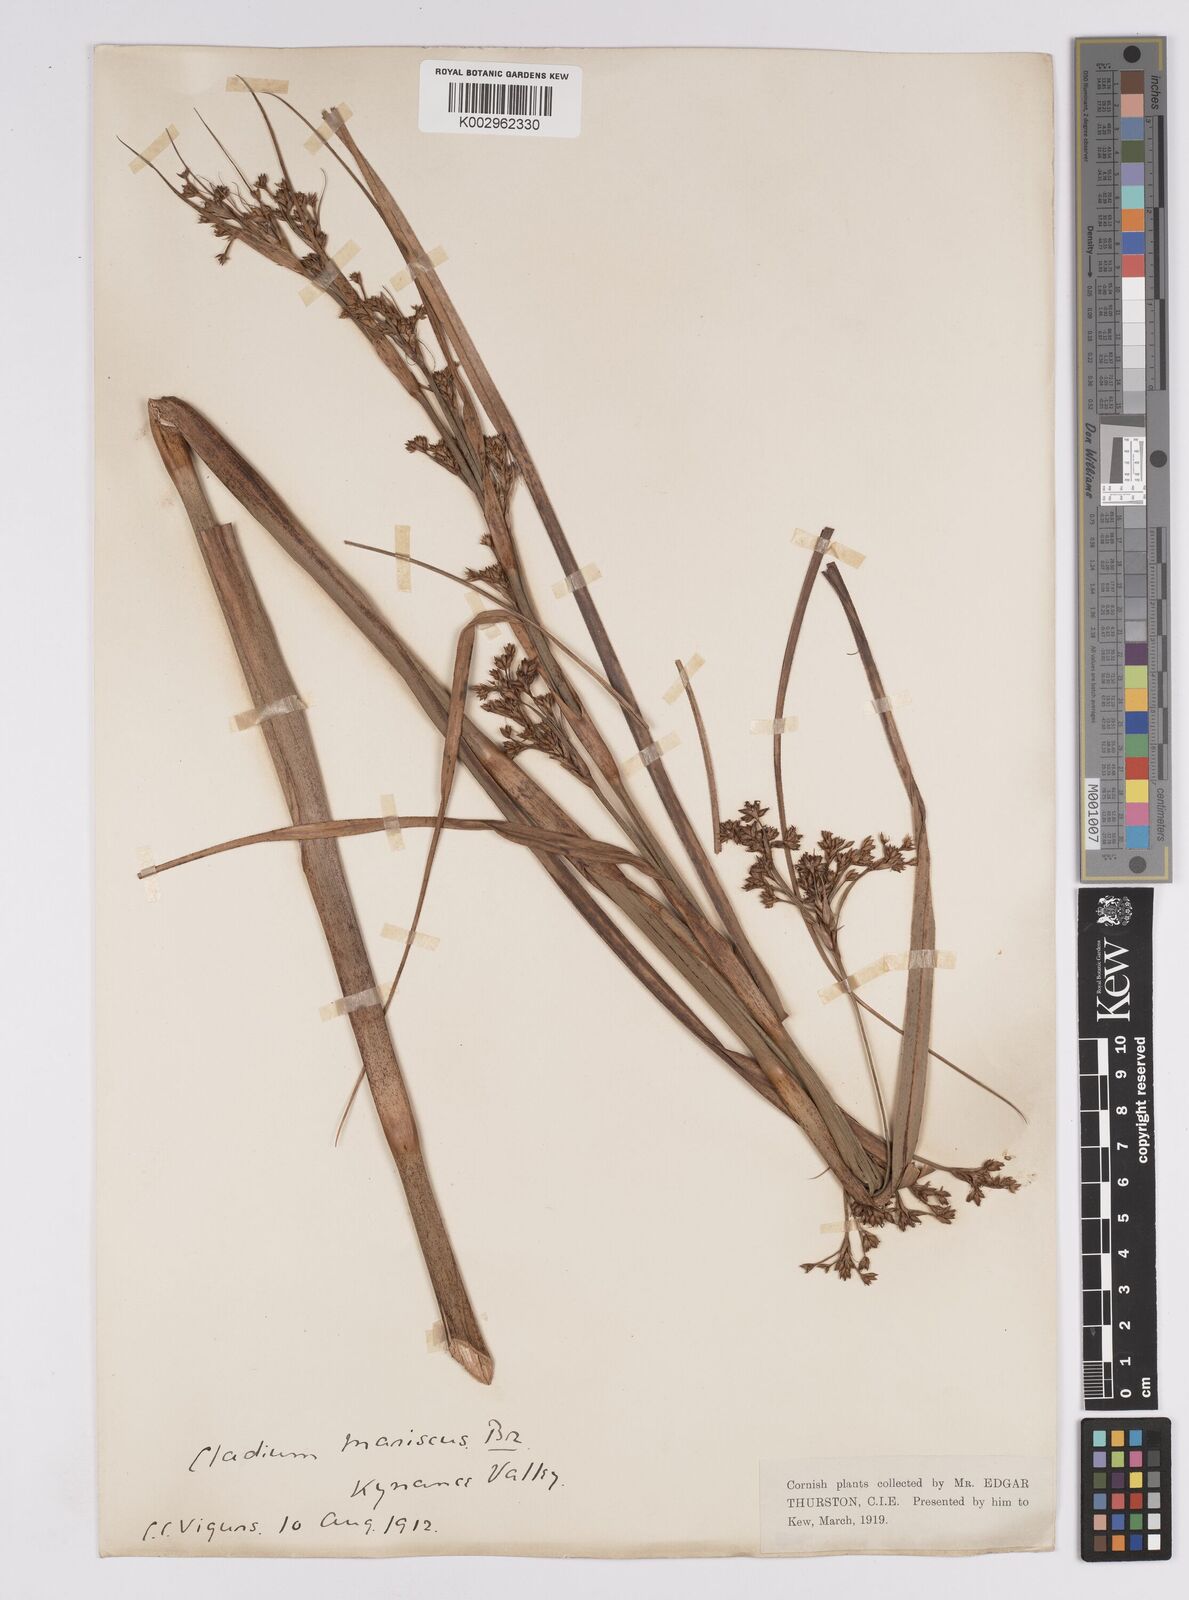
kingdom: Plantae
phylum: Tracheophyta
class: Liliopsida
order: Poales
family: Cyperaceae
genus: Cladium
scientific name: Cladium mariscus
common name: Great fen-sedge
